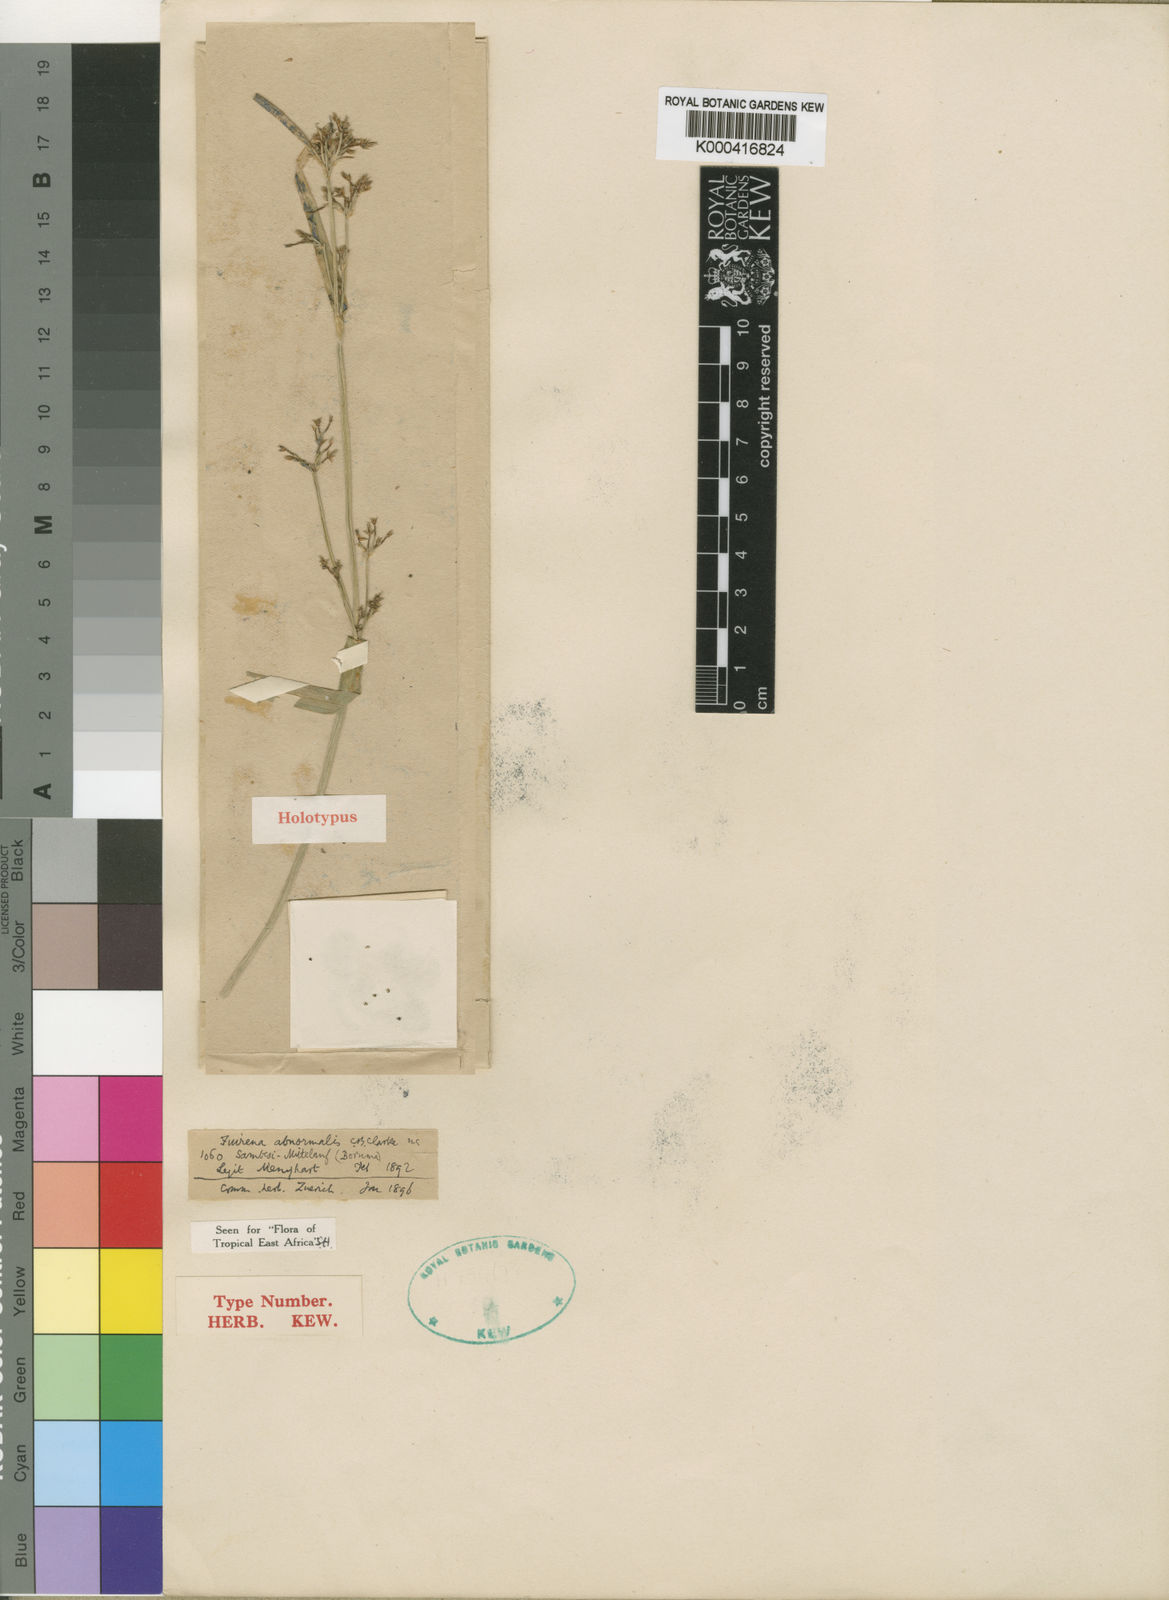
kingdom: Plantae
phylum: Tracheophyta
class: Liliopsida
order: Poales
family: Cyperaceae
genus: Fuirena
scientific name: Fuirena abnormalis
